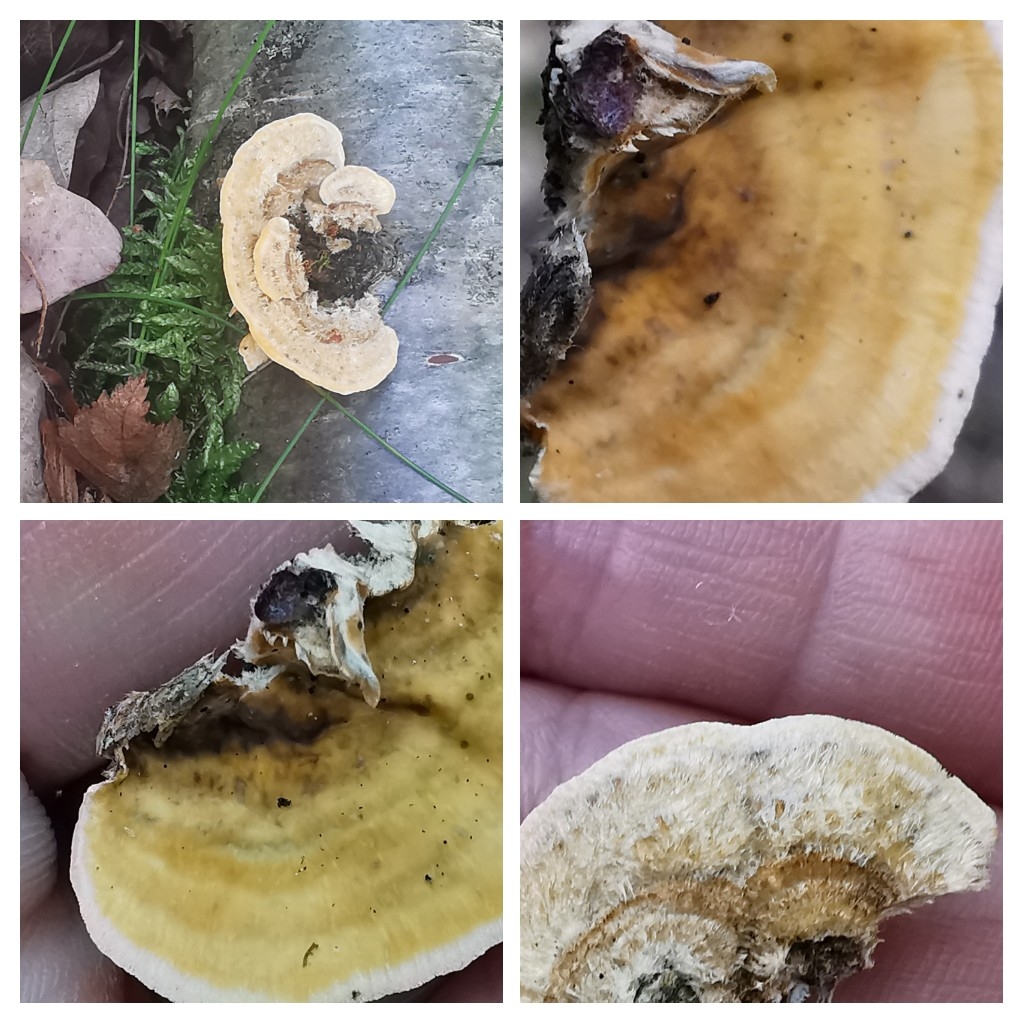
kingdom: Fungi
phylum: Basidiomycota
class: Agaricomycetes
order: Polyporales
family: Polyporaceae
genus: Trametes
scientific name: Trametes
